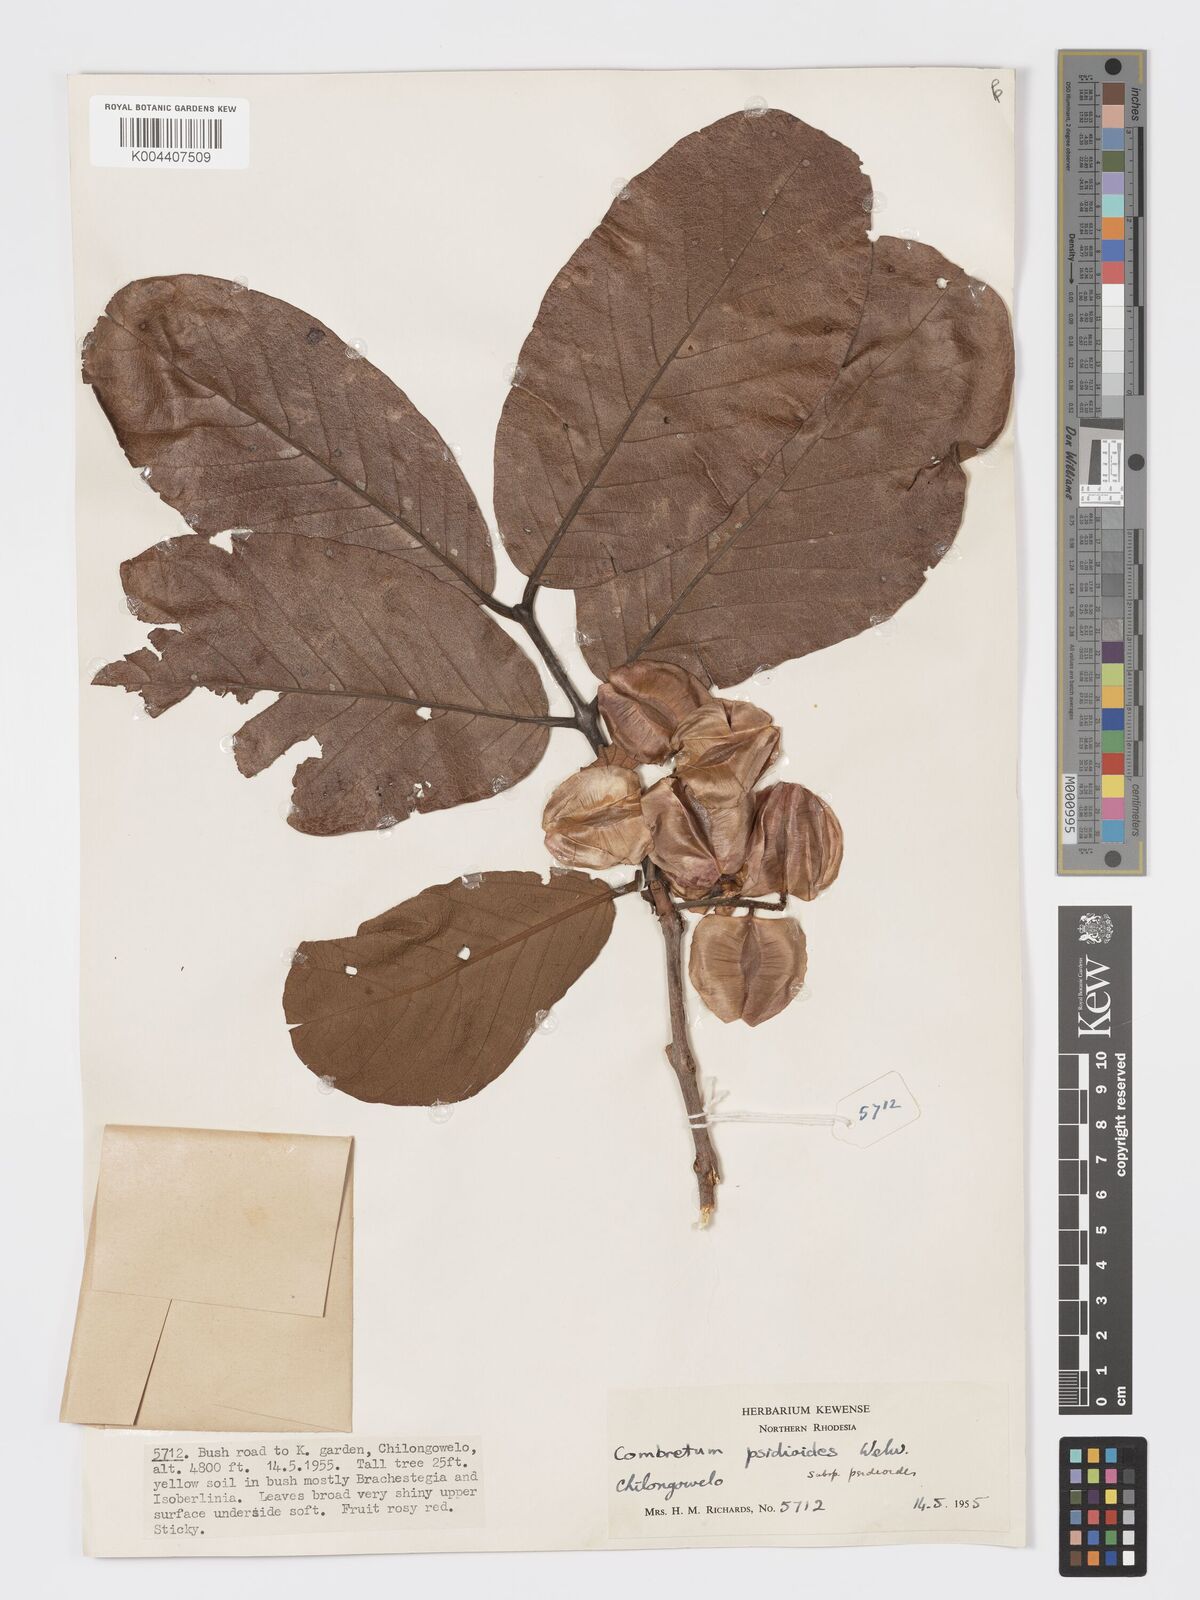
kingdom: Plantae
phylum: Tracheophyta
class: Magnoliopsida
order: Myrtales
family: Combretaceae
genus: Combretum
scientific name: Combretum psidioides
